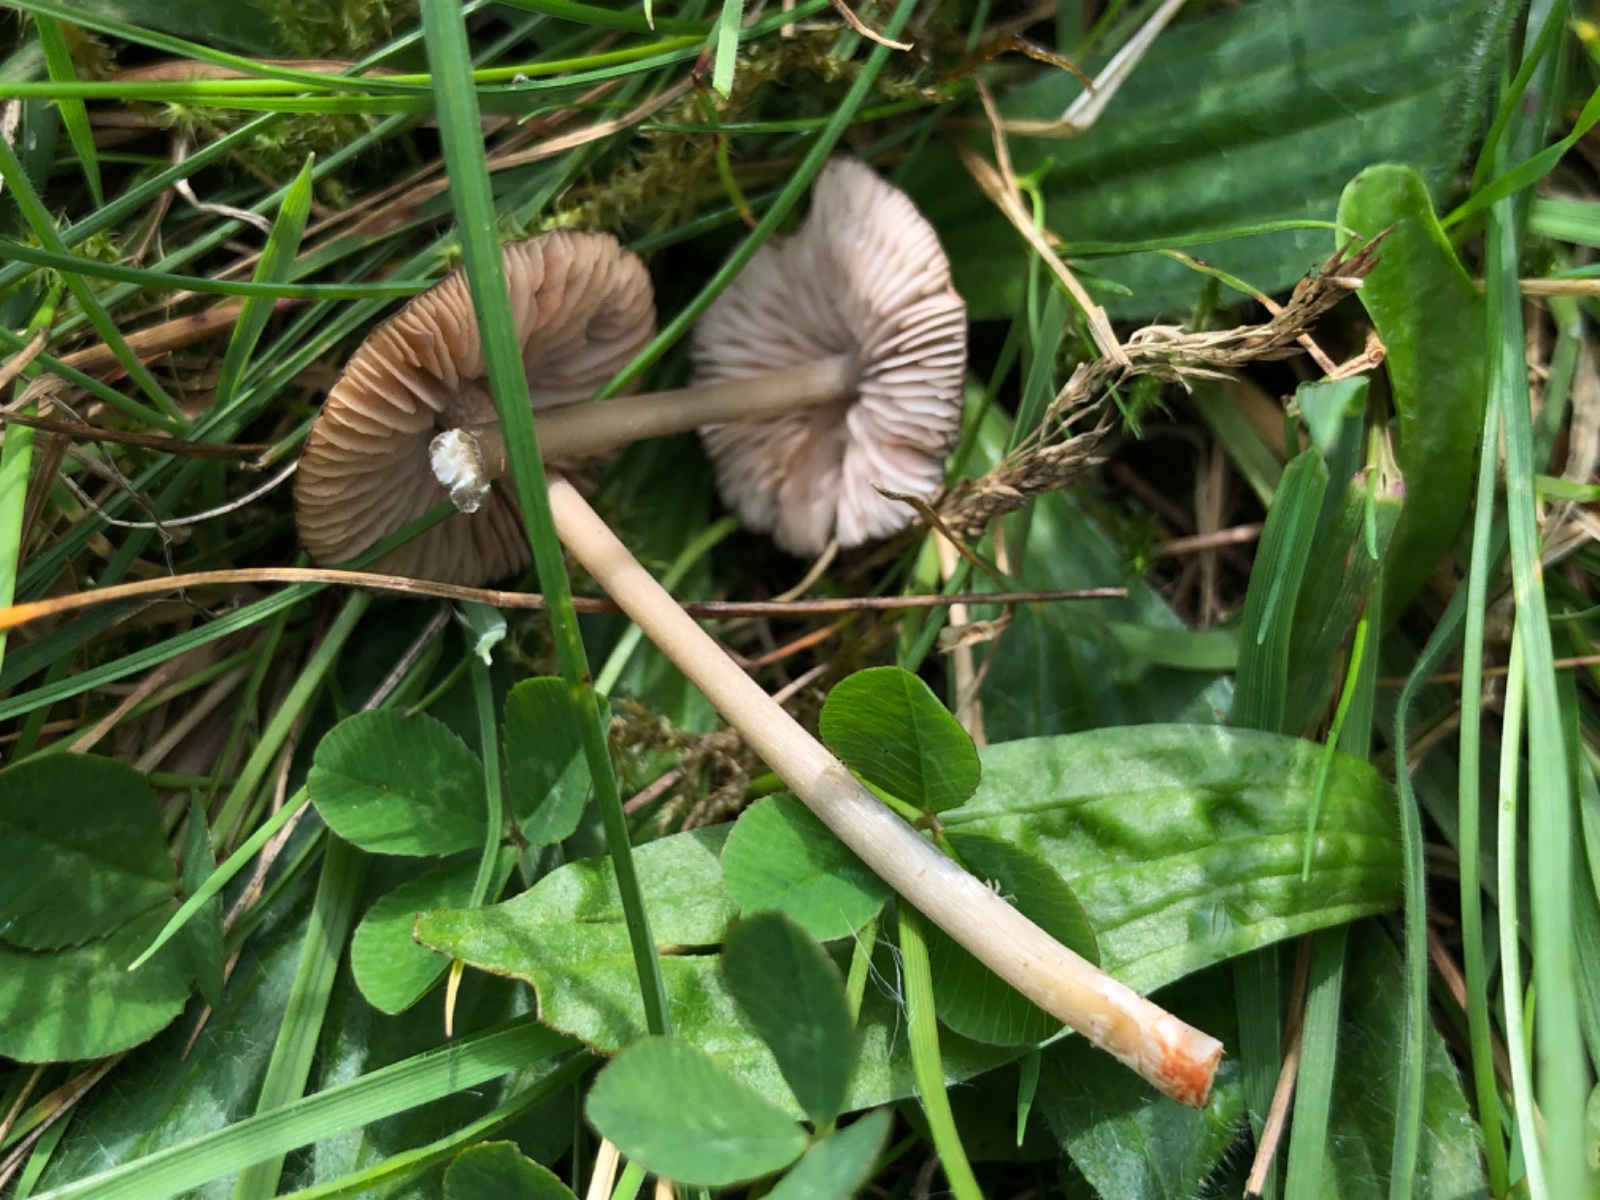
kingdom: Fungi
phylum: Basidiomycota
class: Agaricomycetes
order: Agaricales
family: Entolomataceae
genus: Entoloma
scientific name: Entoloma exile
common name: rødplettet rødblad
